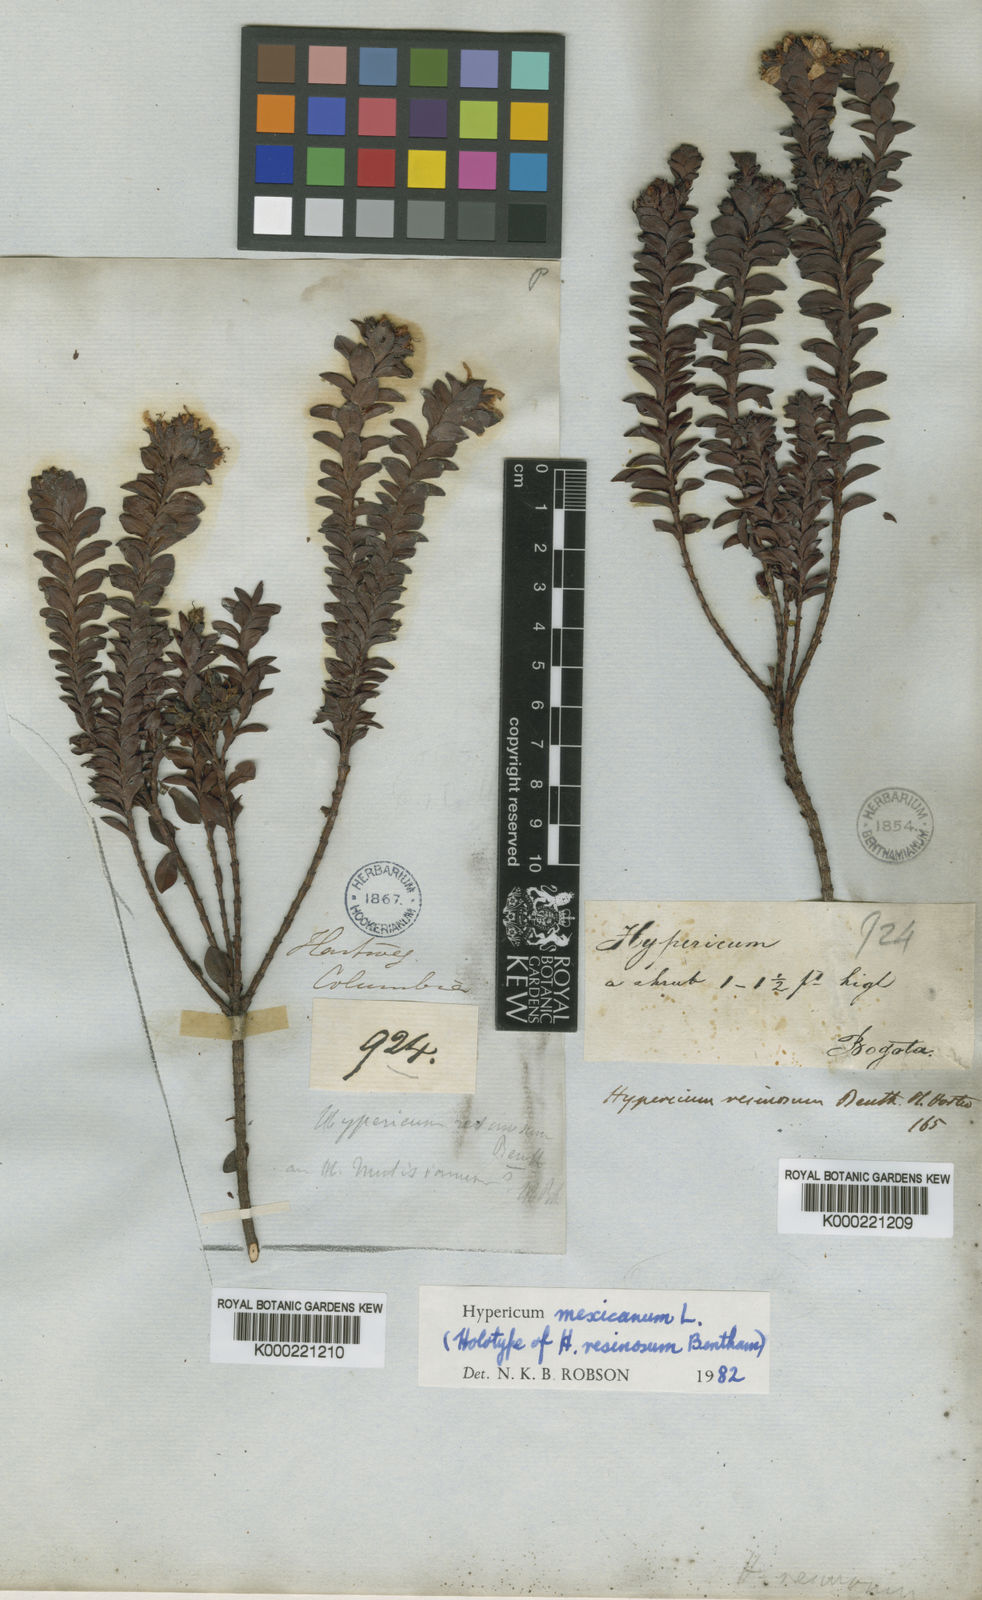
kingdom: Plantae
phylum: Tracheophyta
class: Magnoliopsida
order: Malpighiales
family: Hypericaceae
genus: Hypericum
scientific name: Hypericum mexicanum
